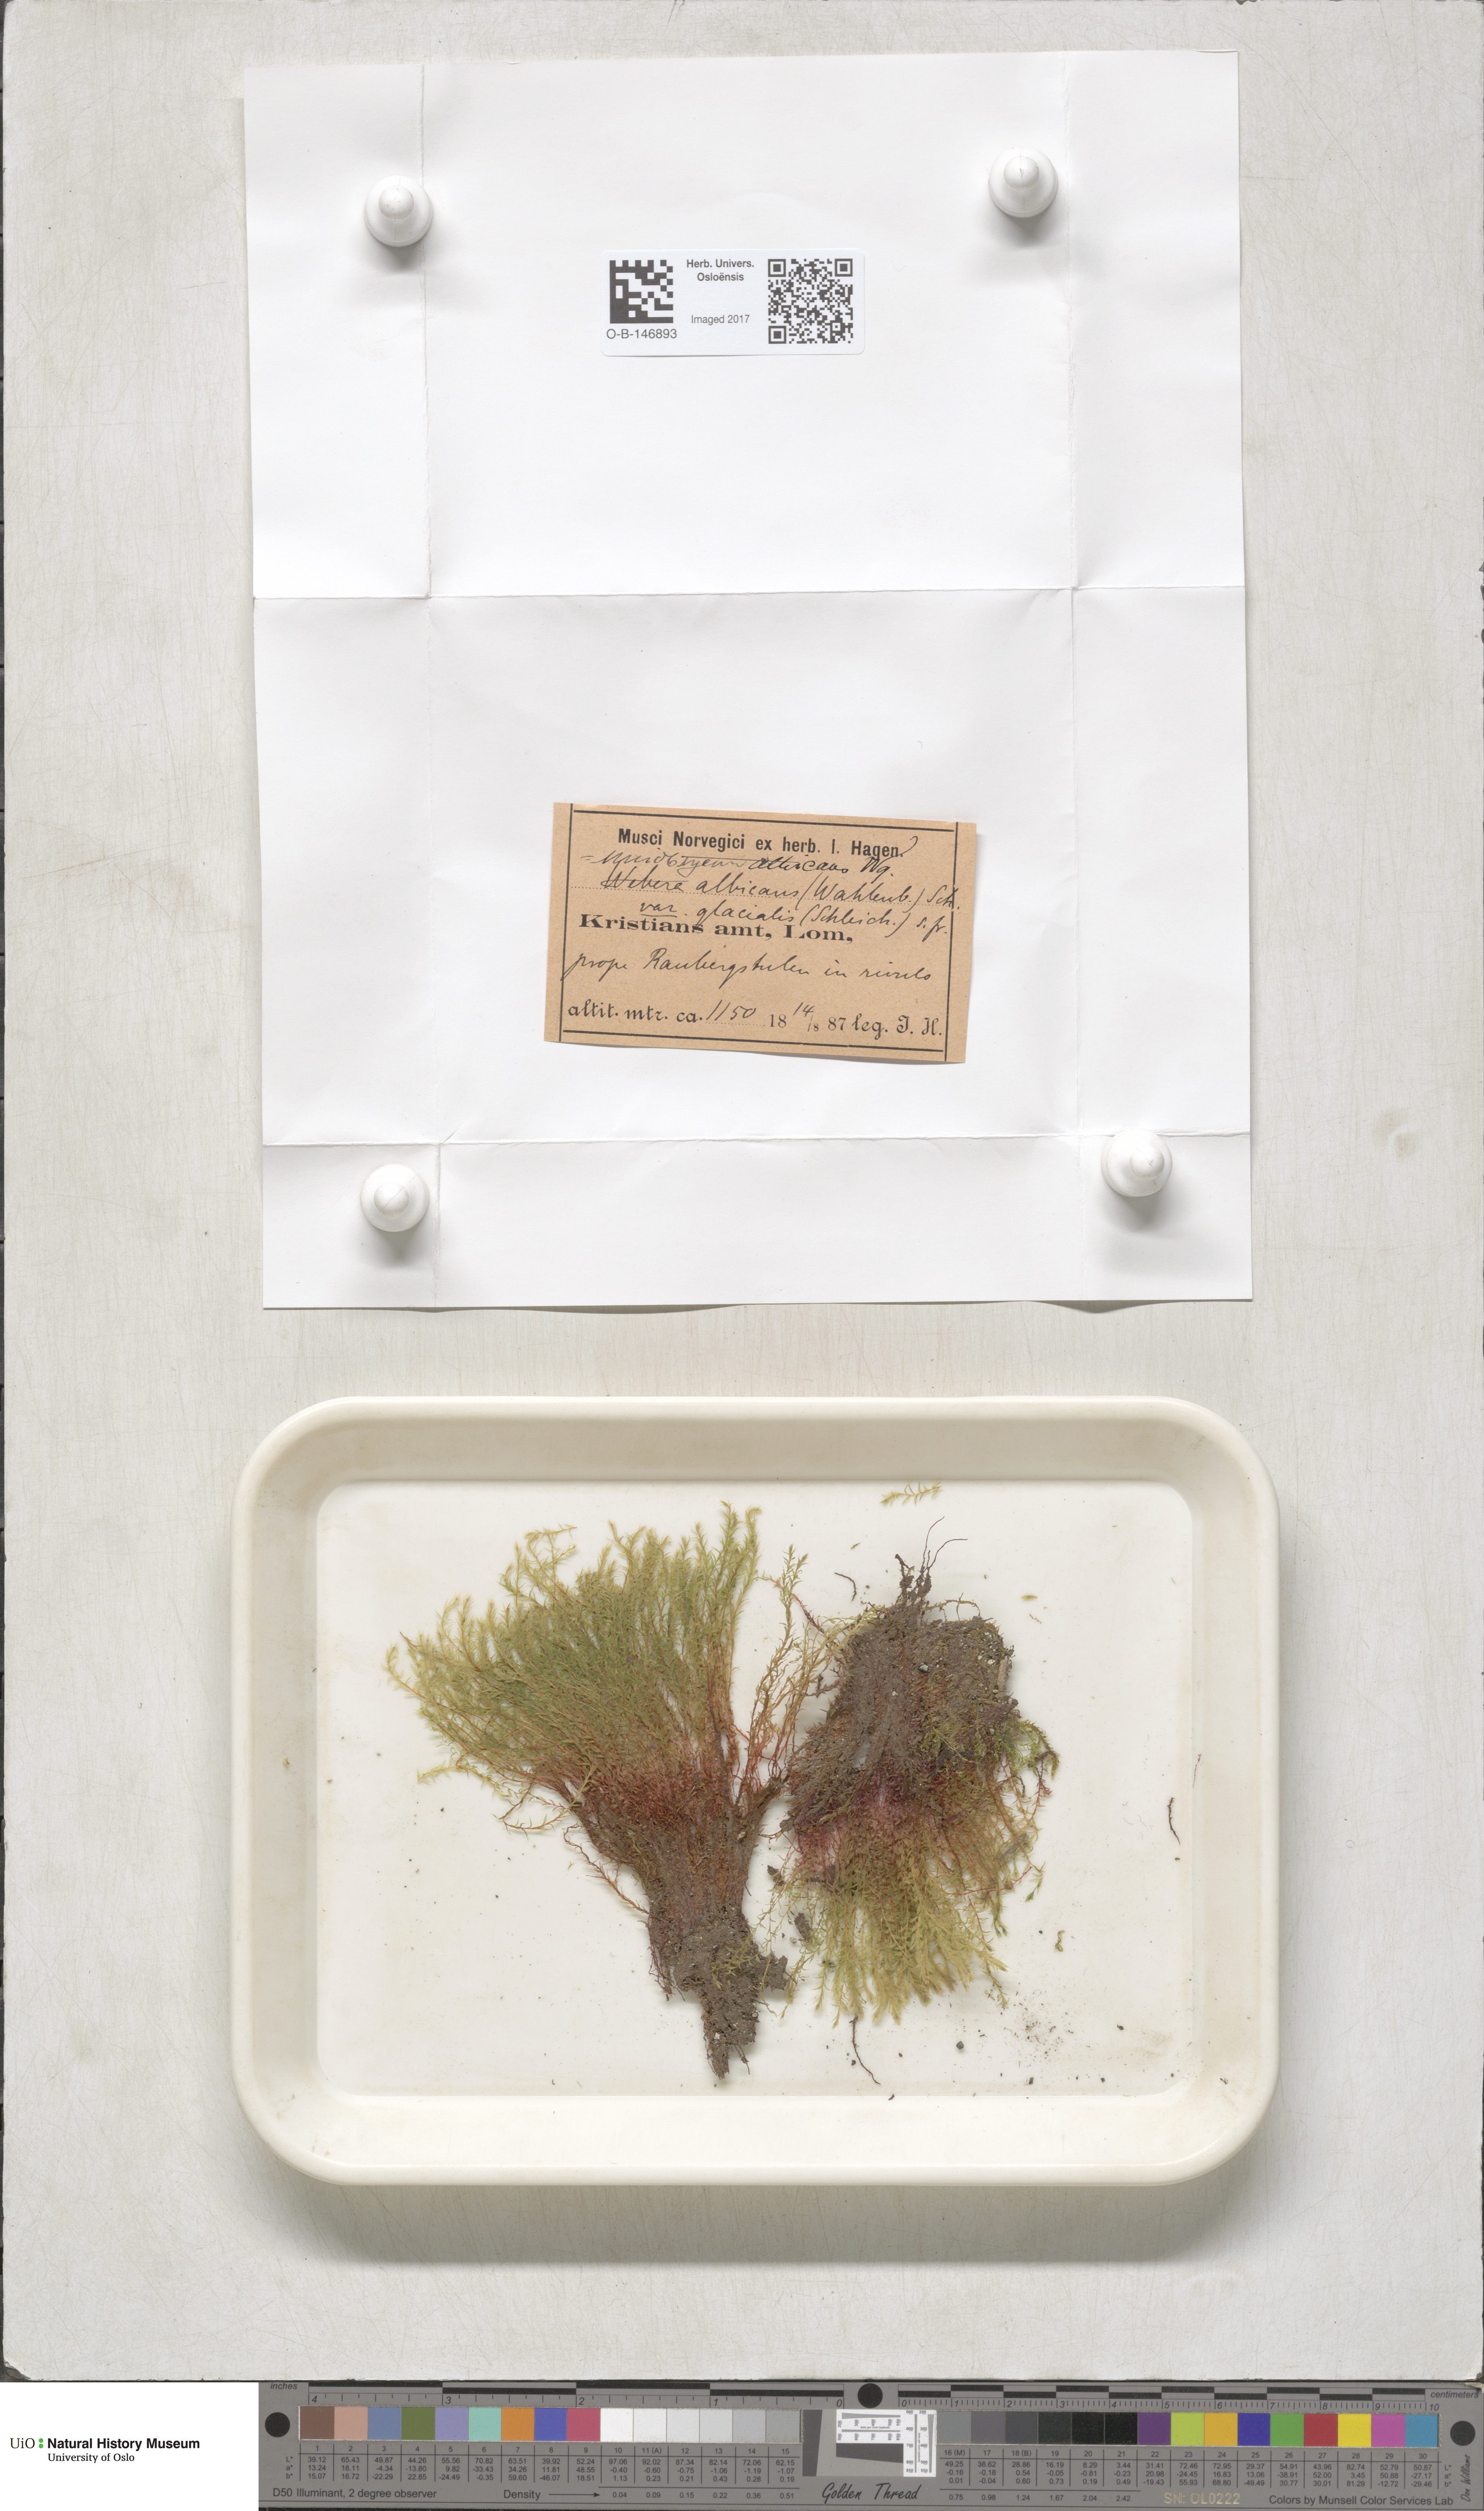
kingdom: Plantae
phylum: Bryophyta
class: Bryopsida
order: Bryales
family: Mniaceae
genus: Pohlia
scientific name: Pohlia wahlenbergii
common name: Wahlenberg's nodding moss
